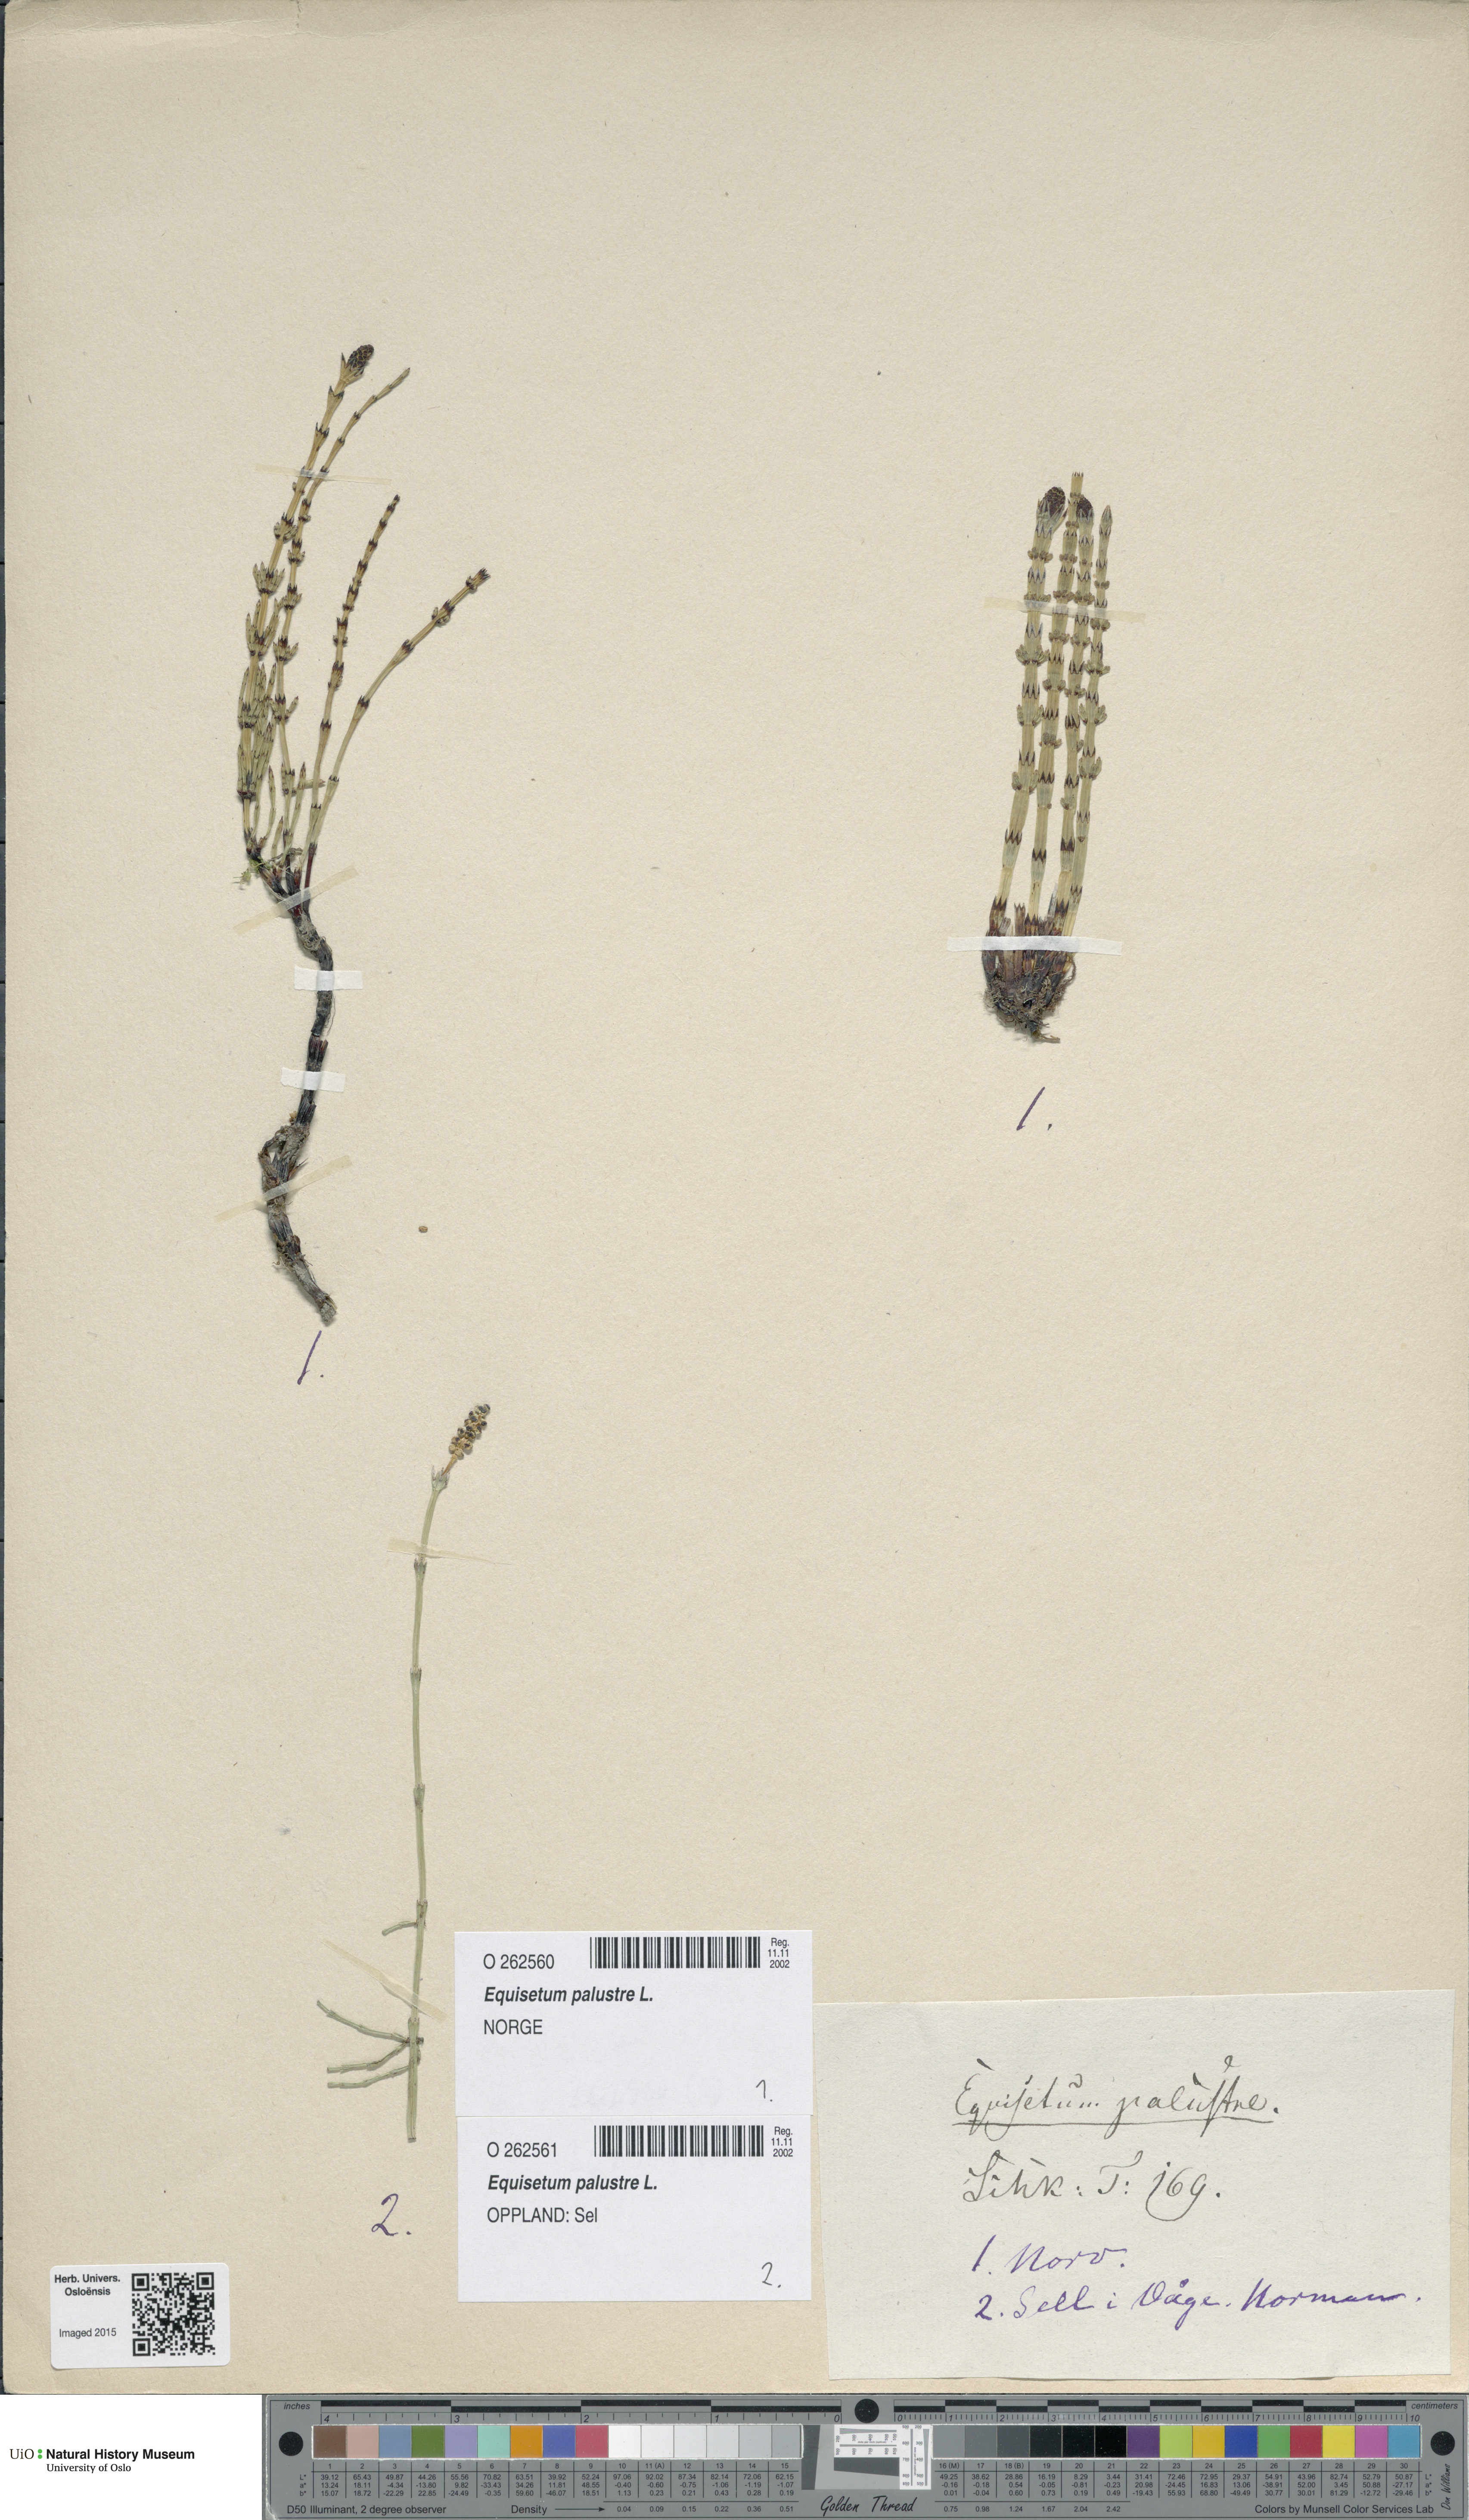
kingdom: Plantae
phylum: Tracheophyta
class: Polypodiopsida
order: Equisetales
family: Equisetaceae
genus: Equisetum
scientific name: Equisetum palustre
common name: Marsh horsetail
